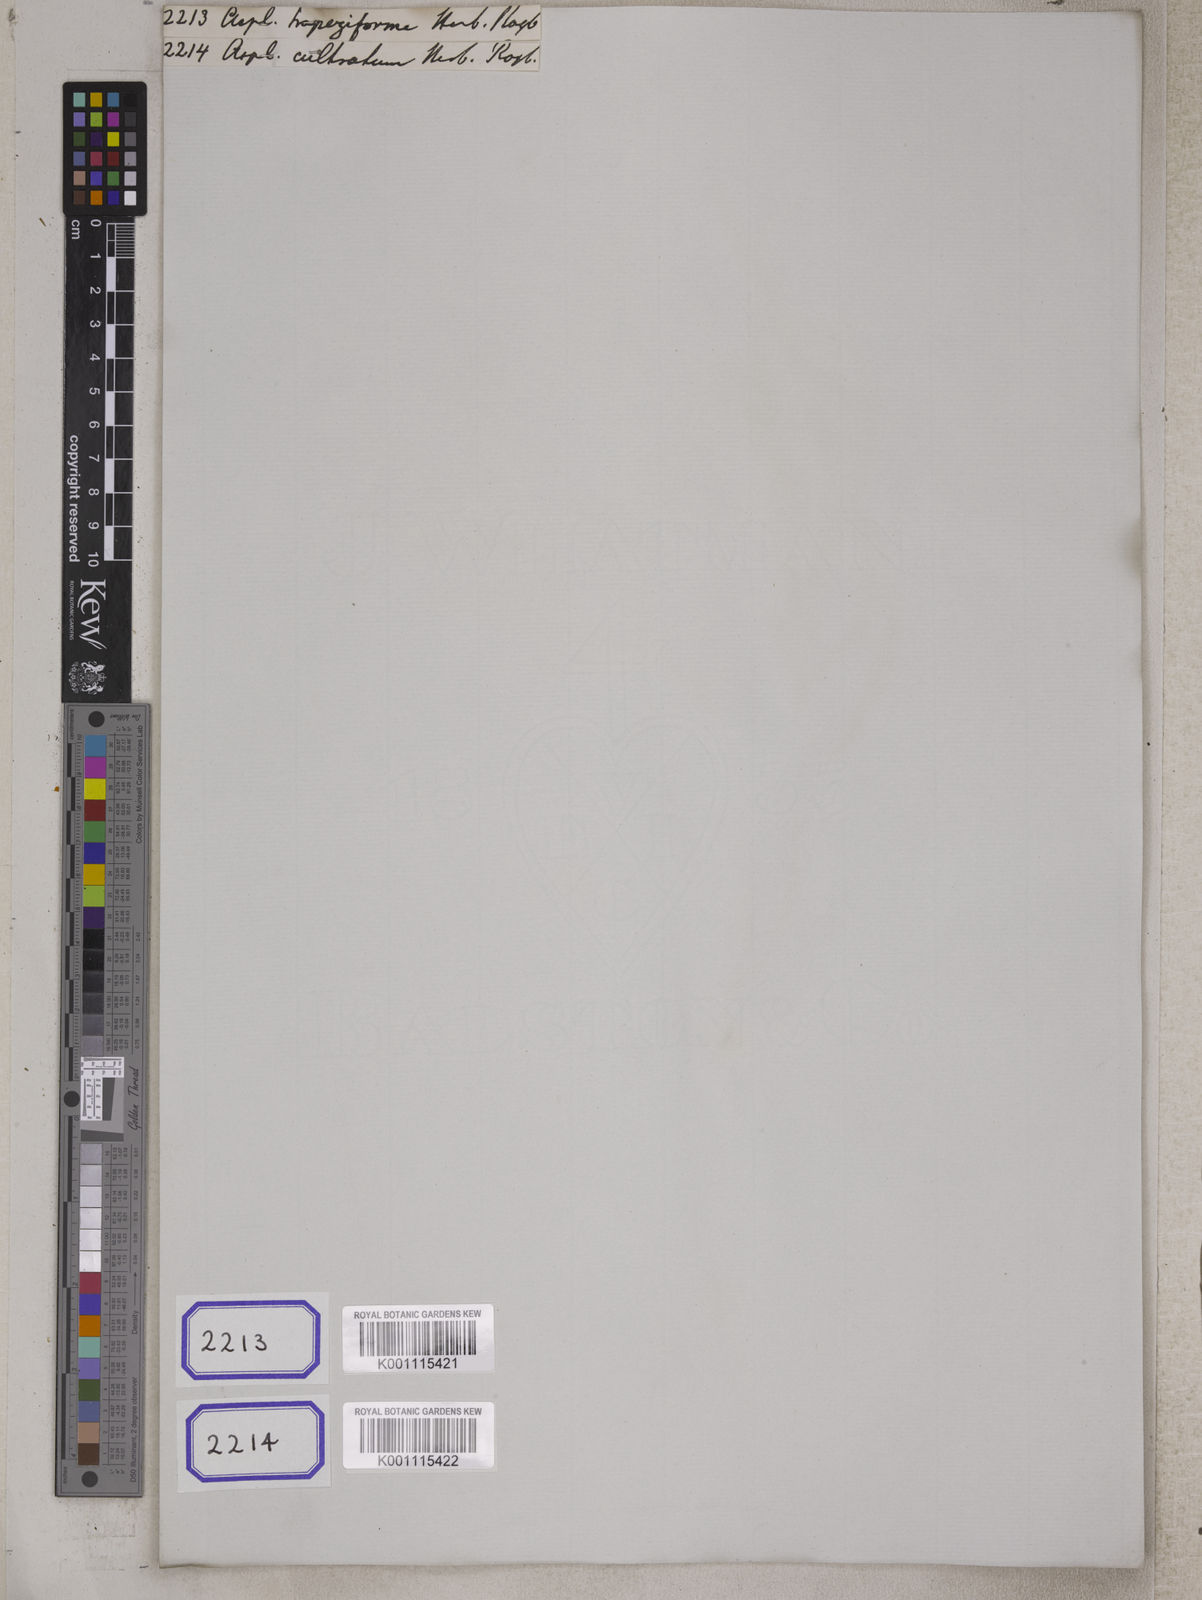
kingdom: Plantae
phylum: Tracheophyta
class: Polypodiopsida
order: Polypodiales
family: Aspleniaceae
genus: Hymenasplenium
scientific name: Hymenasplenium trapeziforme
